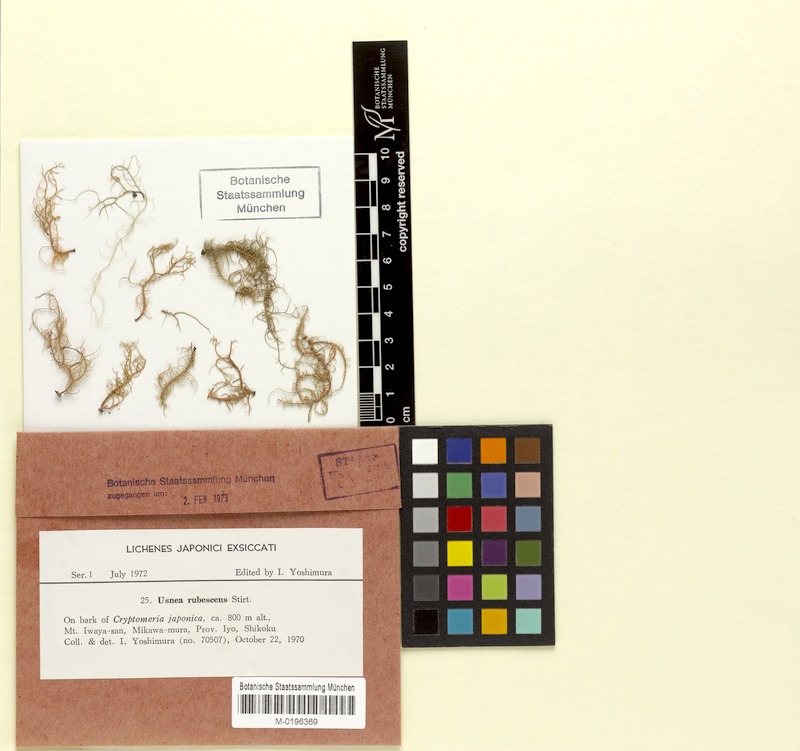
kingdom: Fungi
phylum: Ascomycota
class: Lecanoromycetes
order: Lecanorales
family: Parmeliaceae
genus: Usnea
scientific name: Usnea rubrotincta
